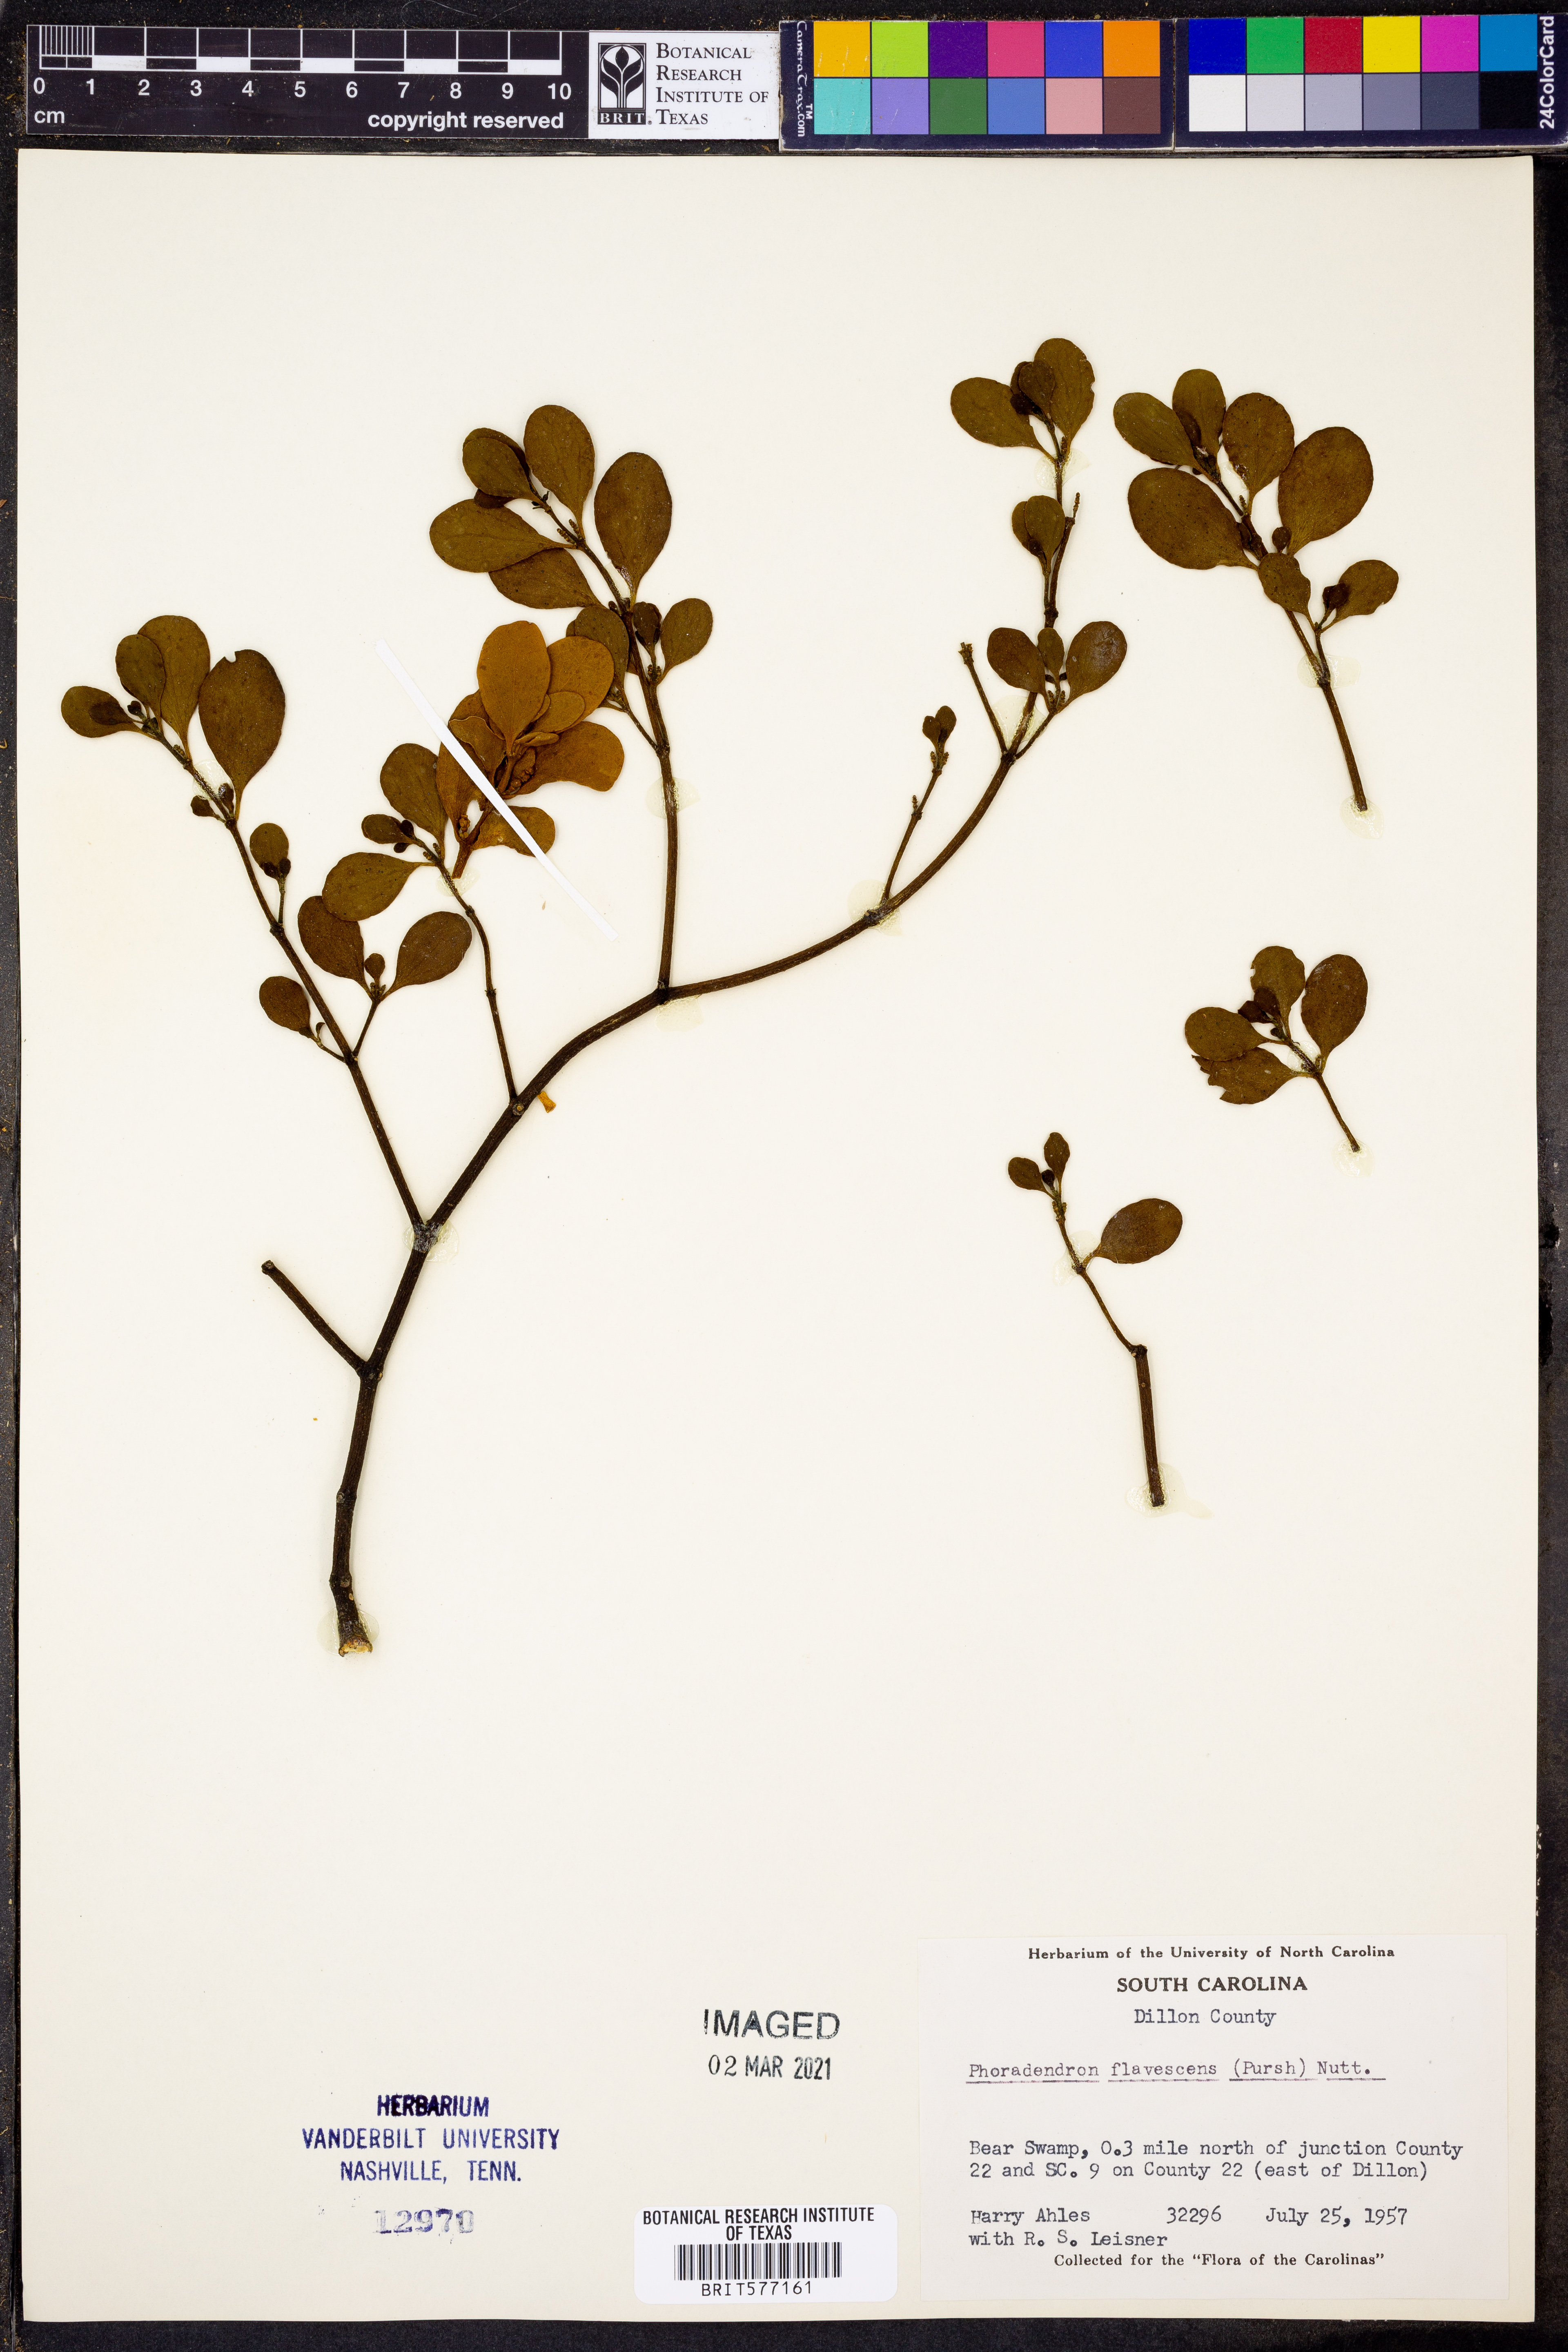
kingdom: Plantae
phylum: Tracheophyta
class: Magnoliopsida
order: Santalales
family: Viscaceae
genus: Phoradendron
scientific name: Phoradendron leucarpum
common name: Pacific mistletoe
